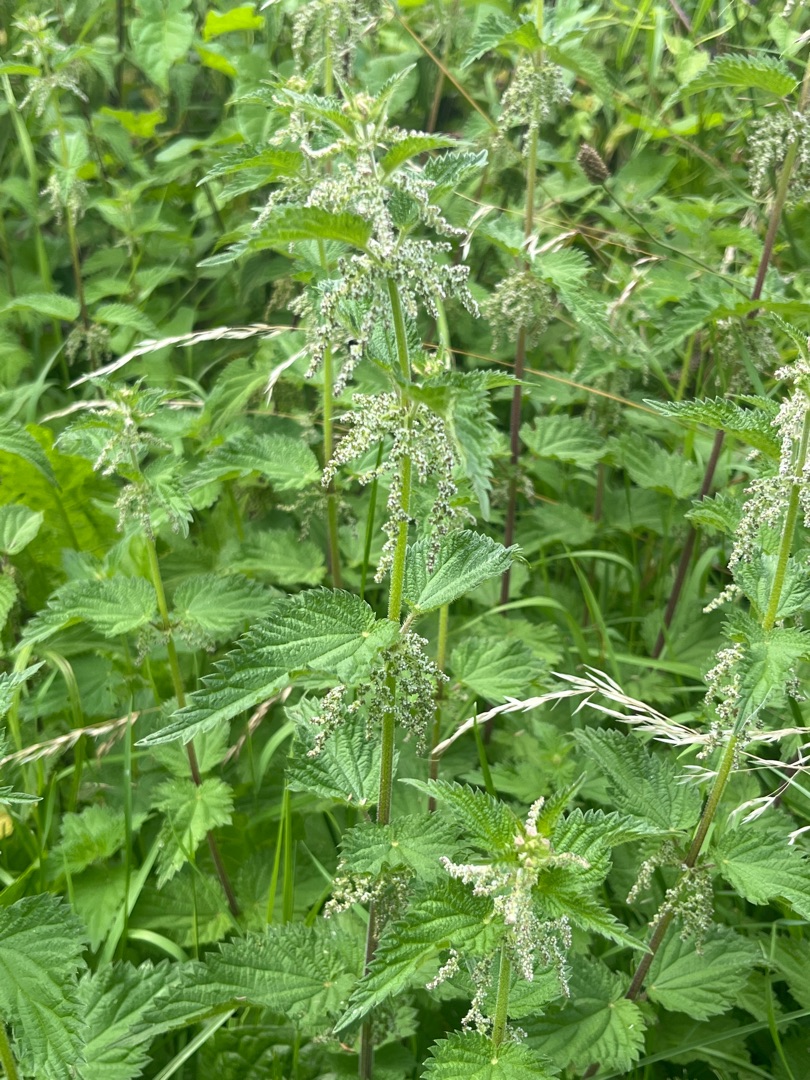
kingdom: Plantae
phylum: Tracheophyta
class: Magnoliopsida
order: Rosales
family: Urticaceae
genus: Urtica
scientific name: Urtica dioica
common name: Stor nælde
